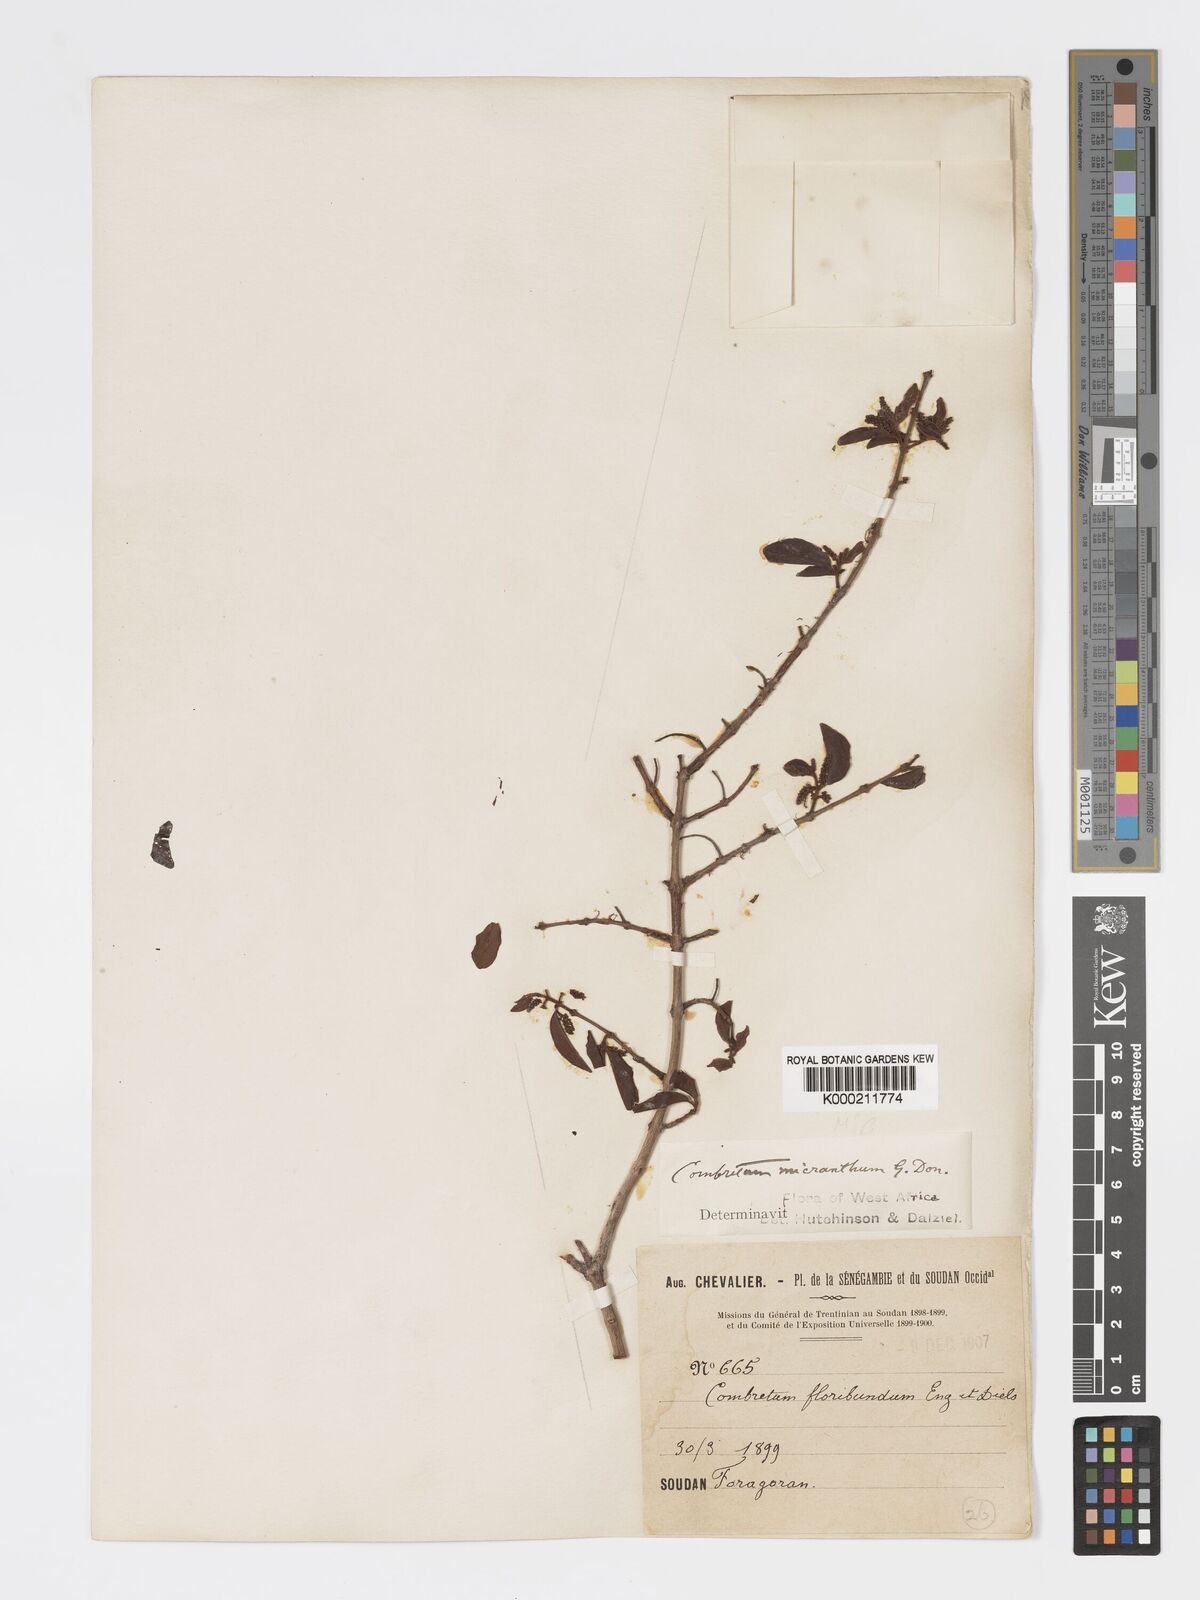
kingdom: Plantae
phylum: Tracheophyta
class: Magnoliopsida
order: Myrtales
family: Combretaceae
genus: Combretum
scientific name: Combretum micranthum
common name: Opium-antidote
